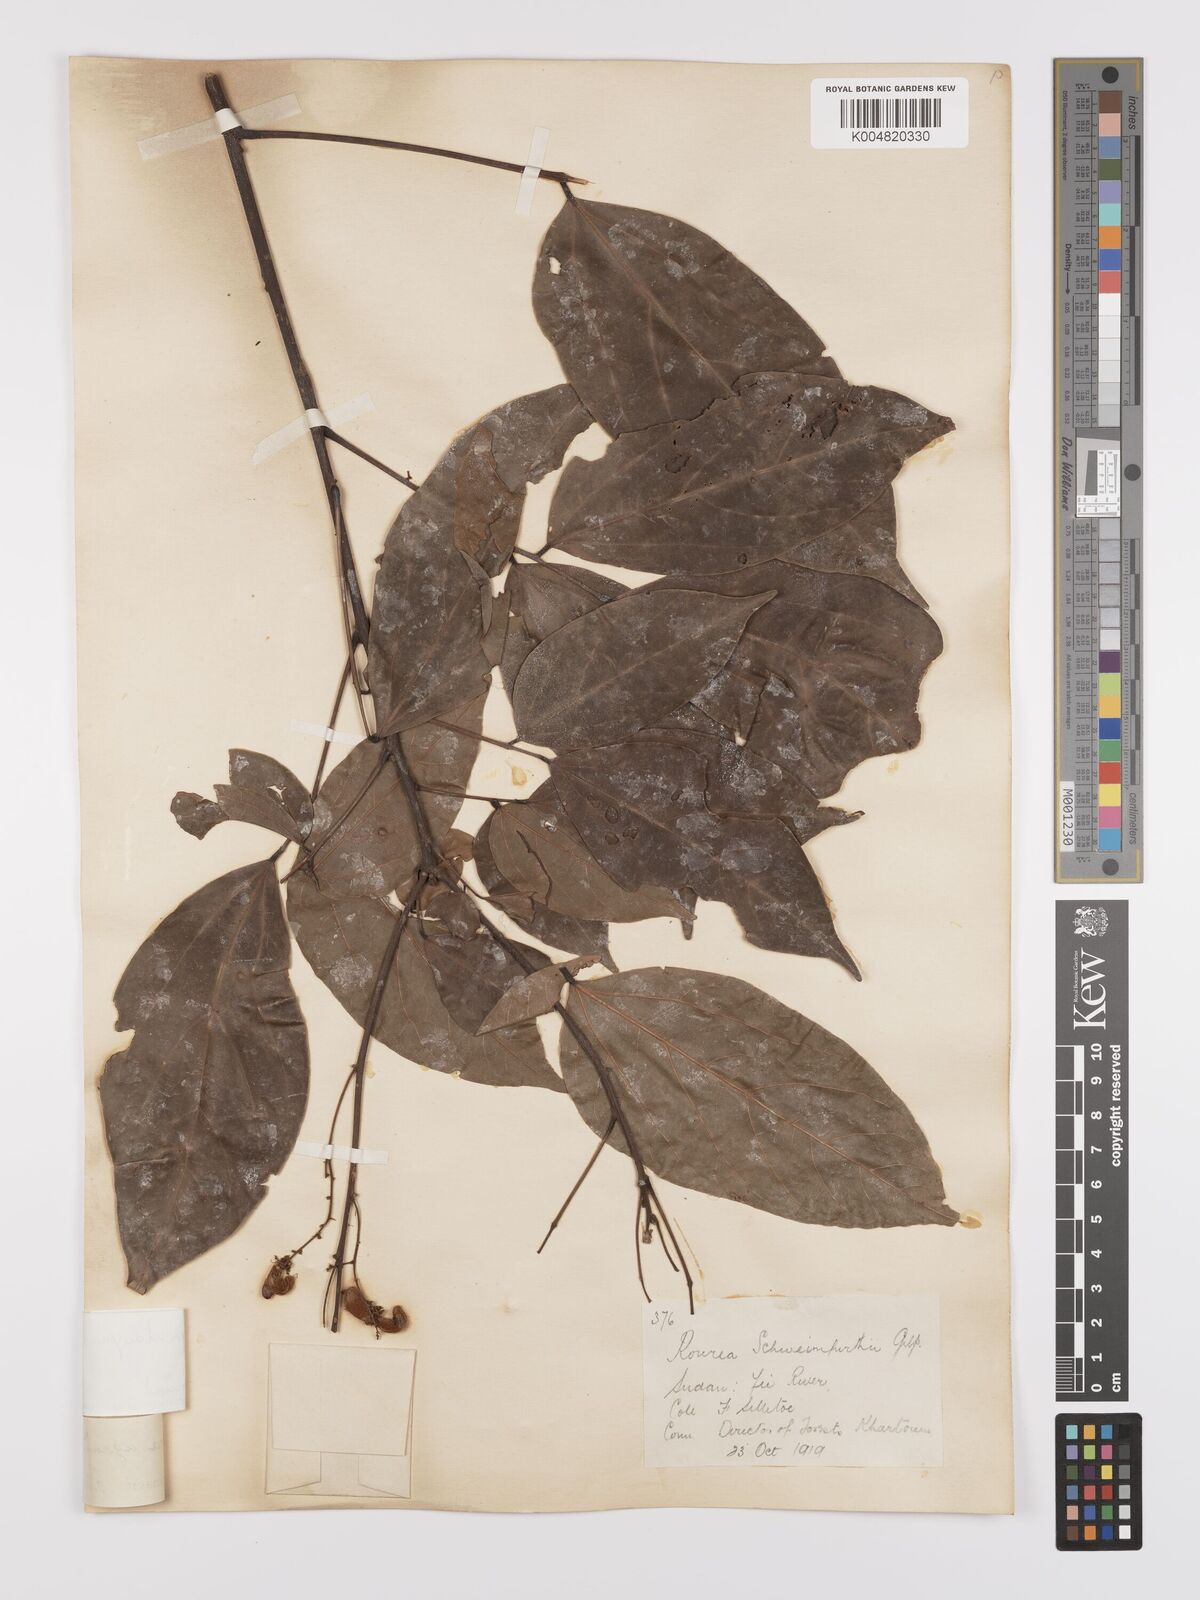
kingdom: Plantae
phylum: Tracheophyta
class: Magnoliopsida
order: Oxalidales
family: Connaraceae
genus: Agelaea
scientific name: Agelaea pentagyna
